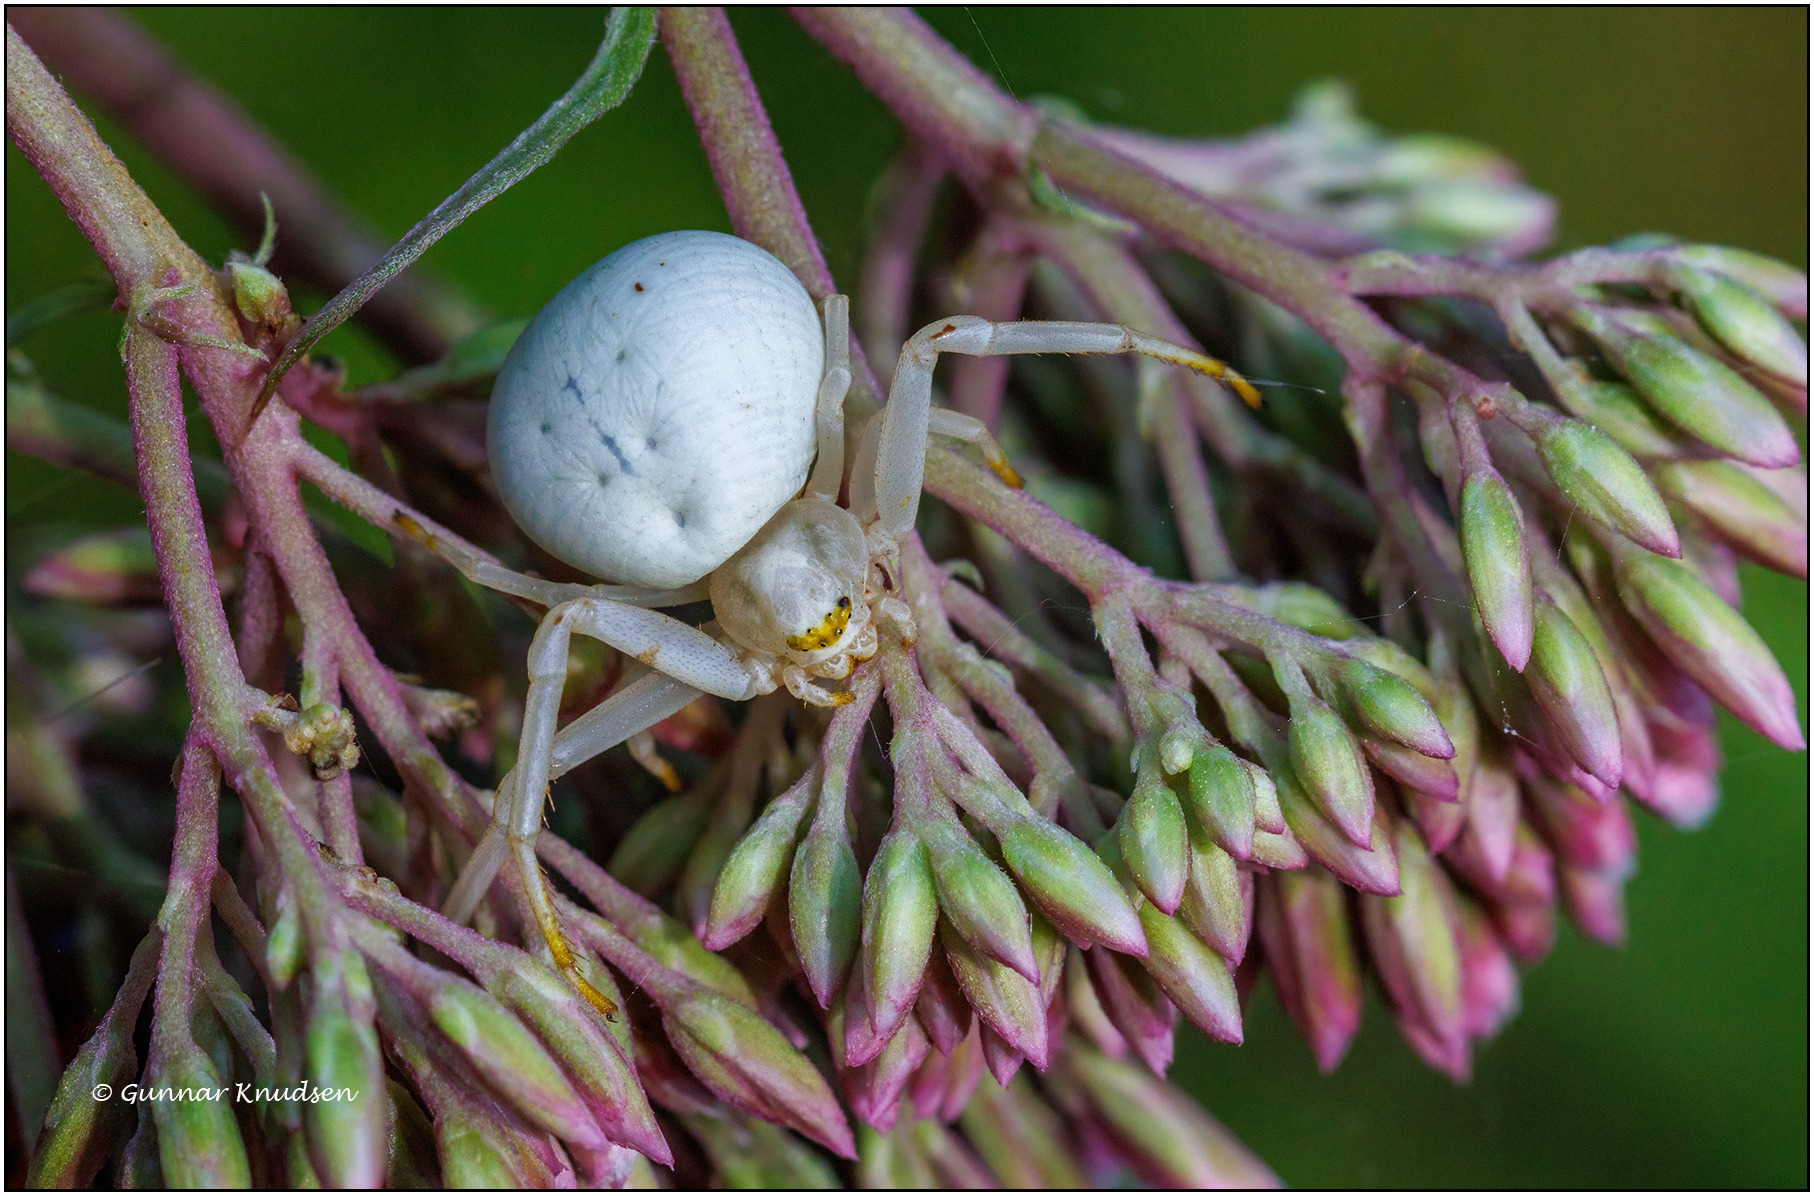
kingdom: Animalia
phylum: Arthropoda
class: Arachnida
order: Araneae
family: Thomisidae
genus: Misumena
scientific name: Misumena vatia
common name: Kamæleonedderkop
